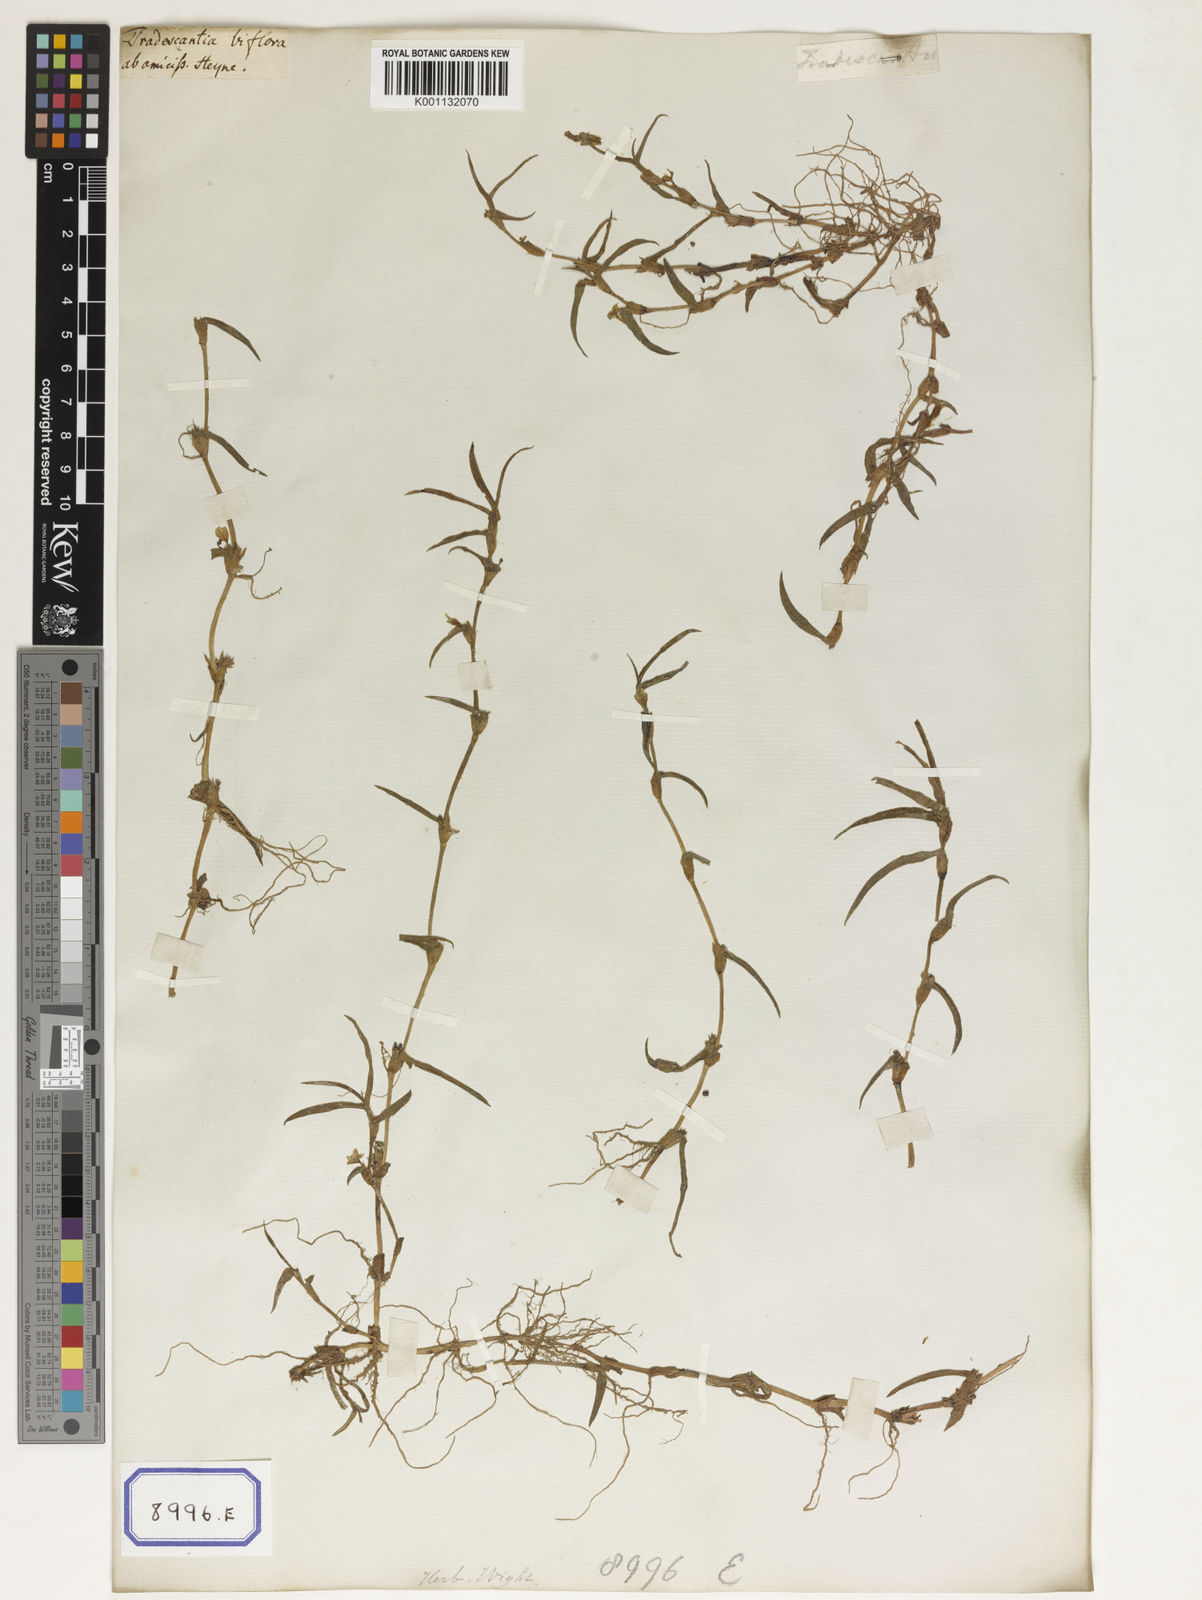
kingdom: Plantae
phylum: Tracheophyta
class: Liliopsida
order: Commelinales
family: Commelinaceae
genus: Cyanotis
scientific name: Cyanotis
